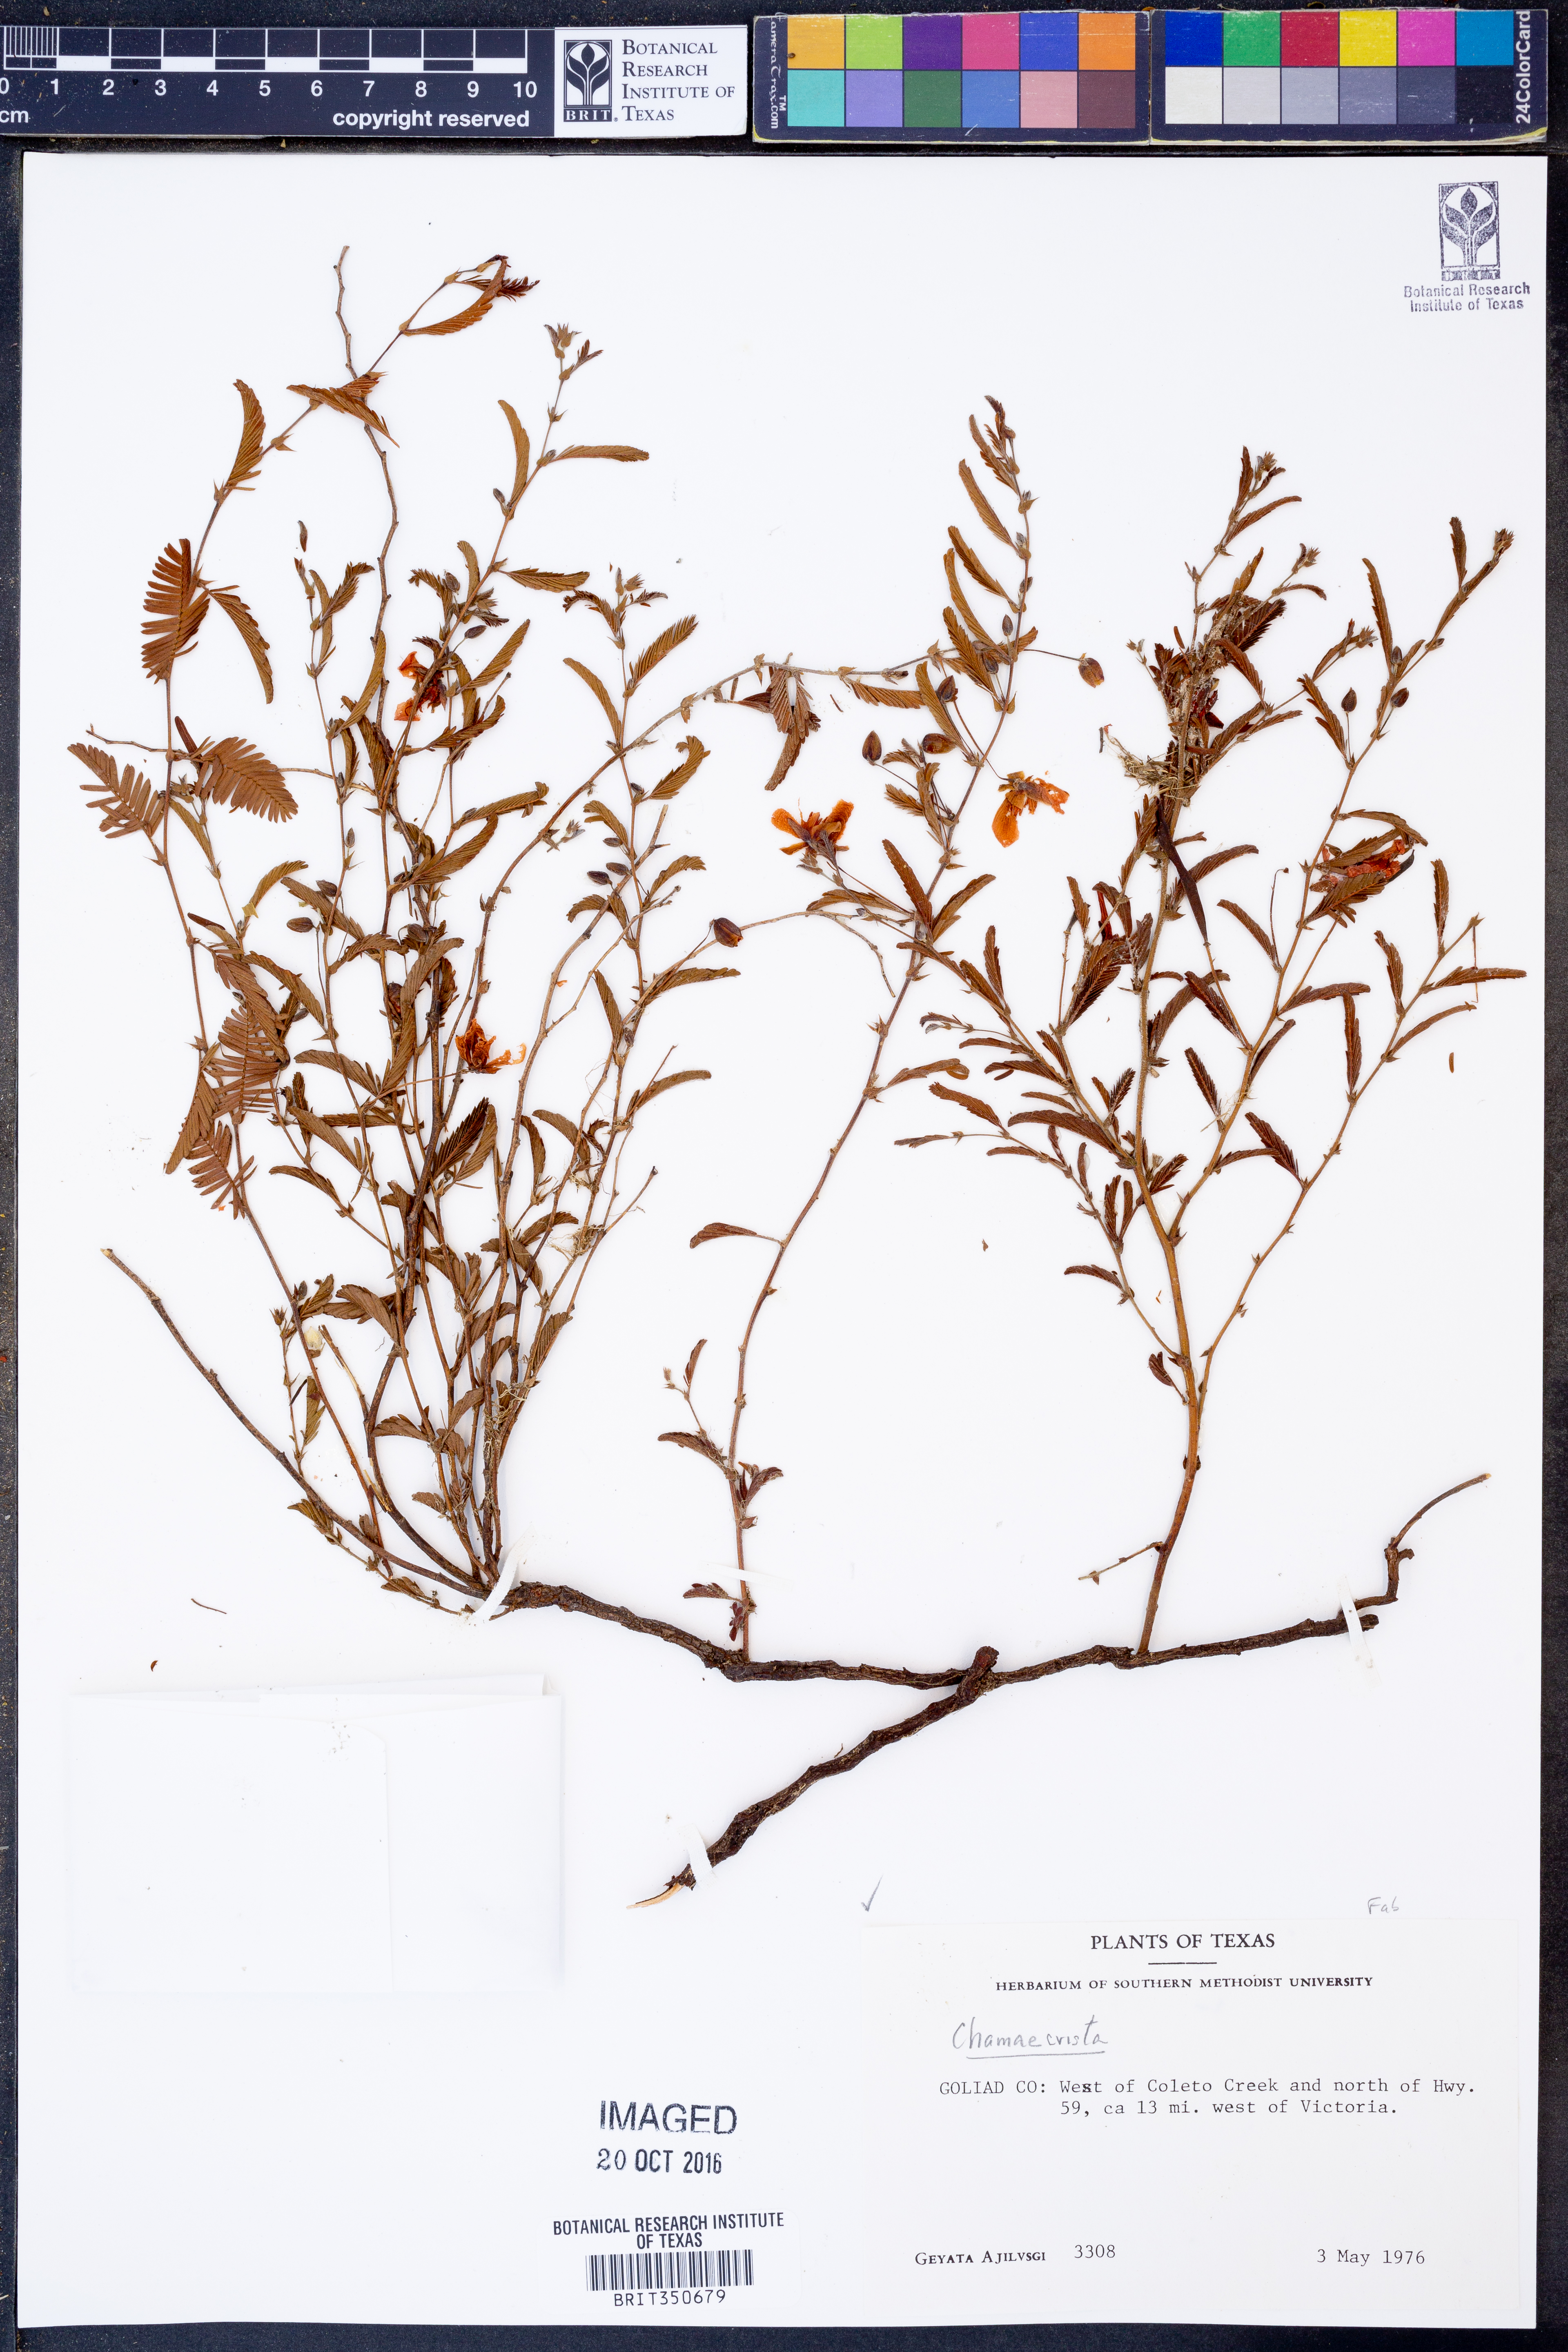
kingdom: Plantae
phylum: Tracheophyta
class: Magnoliopsida
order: Fabales
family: Fabaceae
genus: Chamaecrista
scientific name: Chamaecrista
